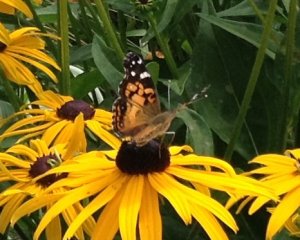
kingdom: Animalia
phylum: Arthropoda
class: Insecta
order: Lepidoptera
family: Nymphalidae
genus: Vanessa
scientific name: Vanessa virginiensis
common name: American Lady
